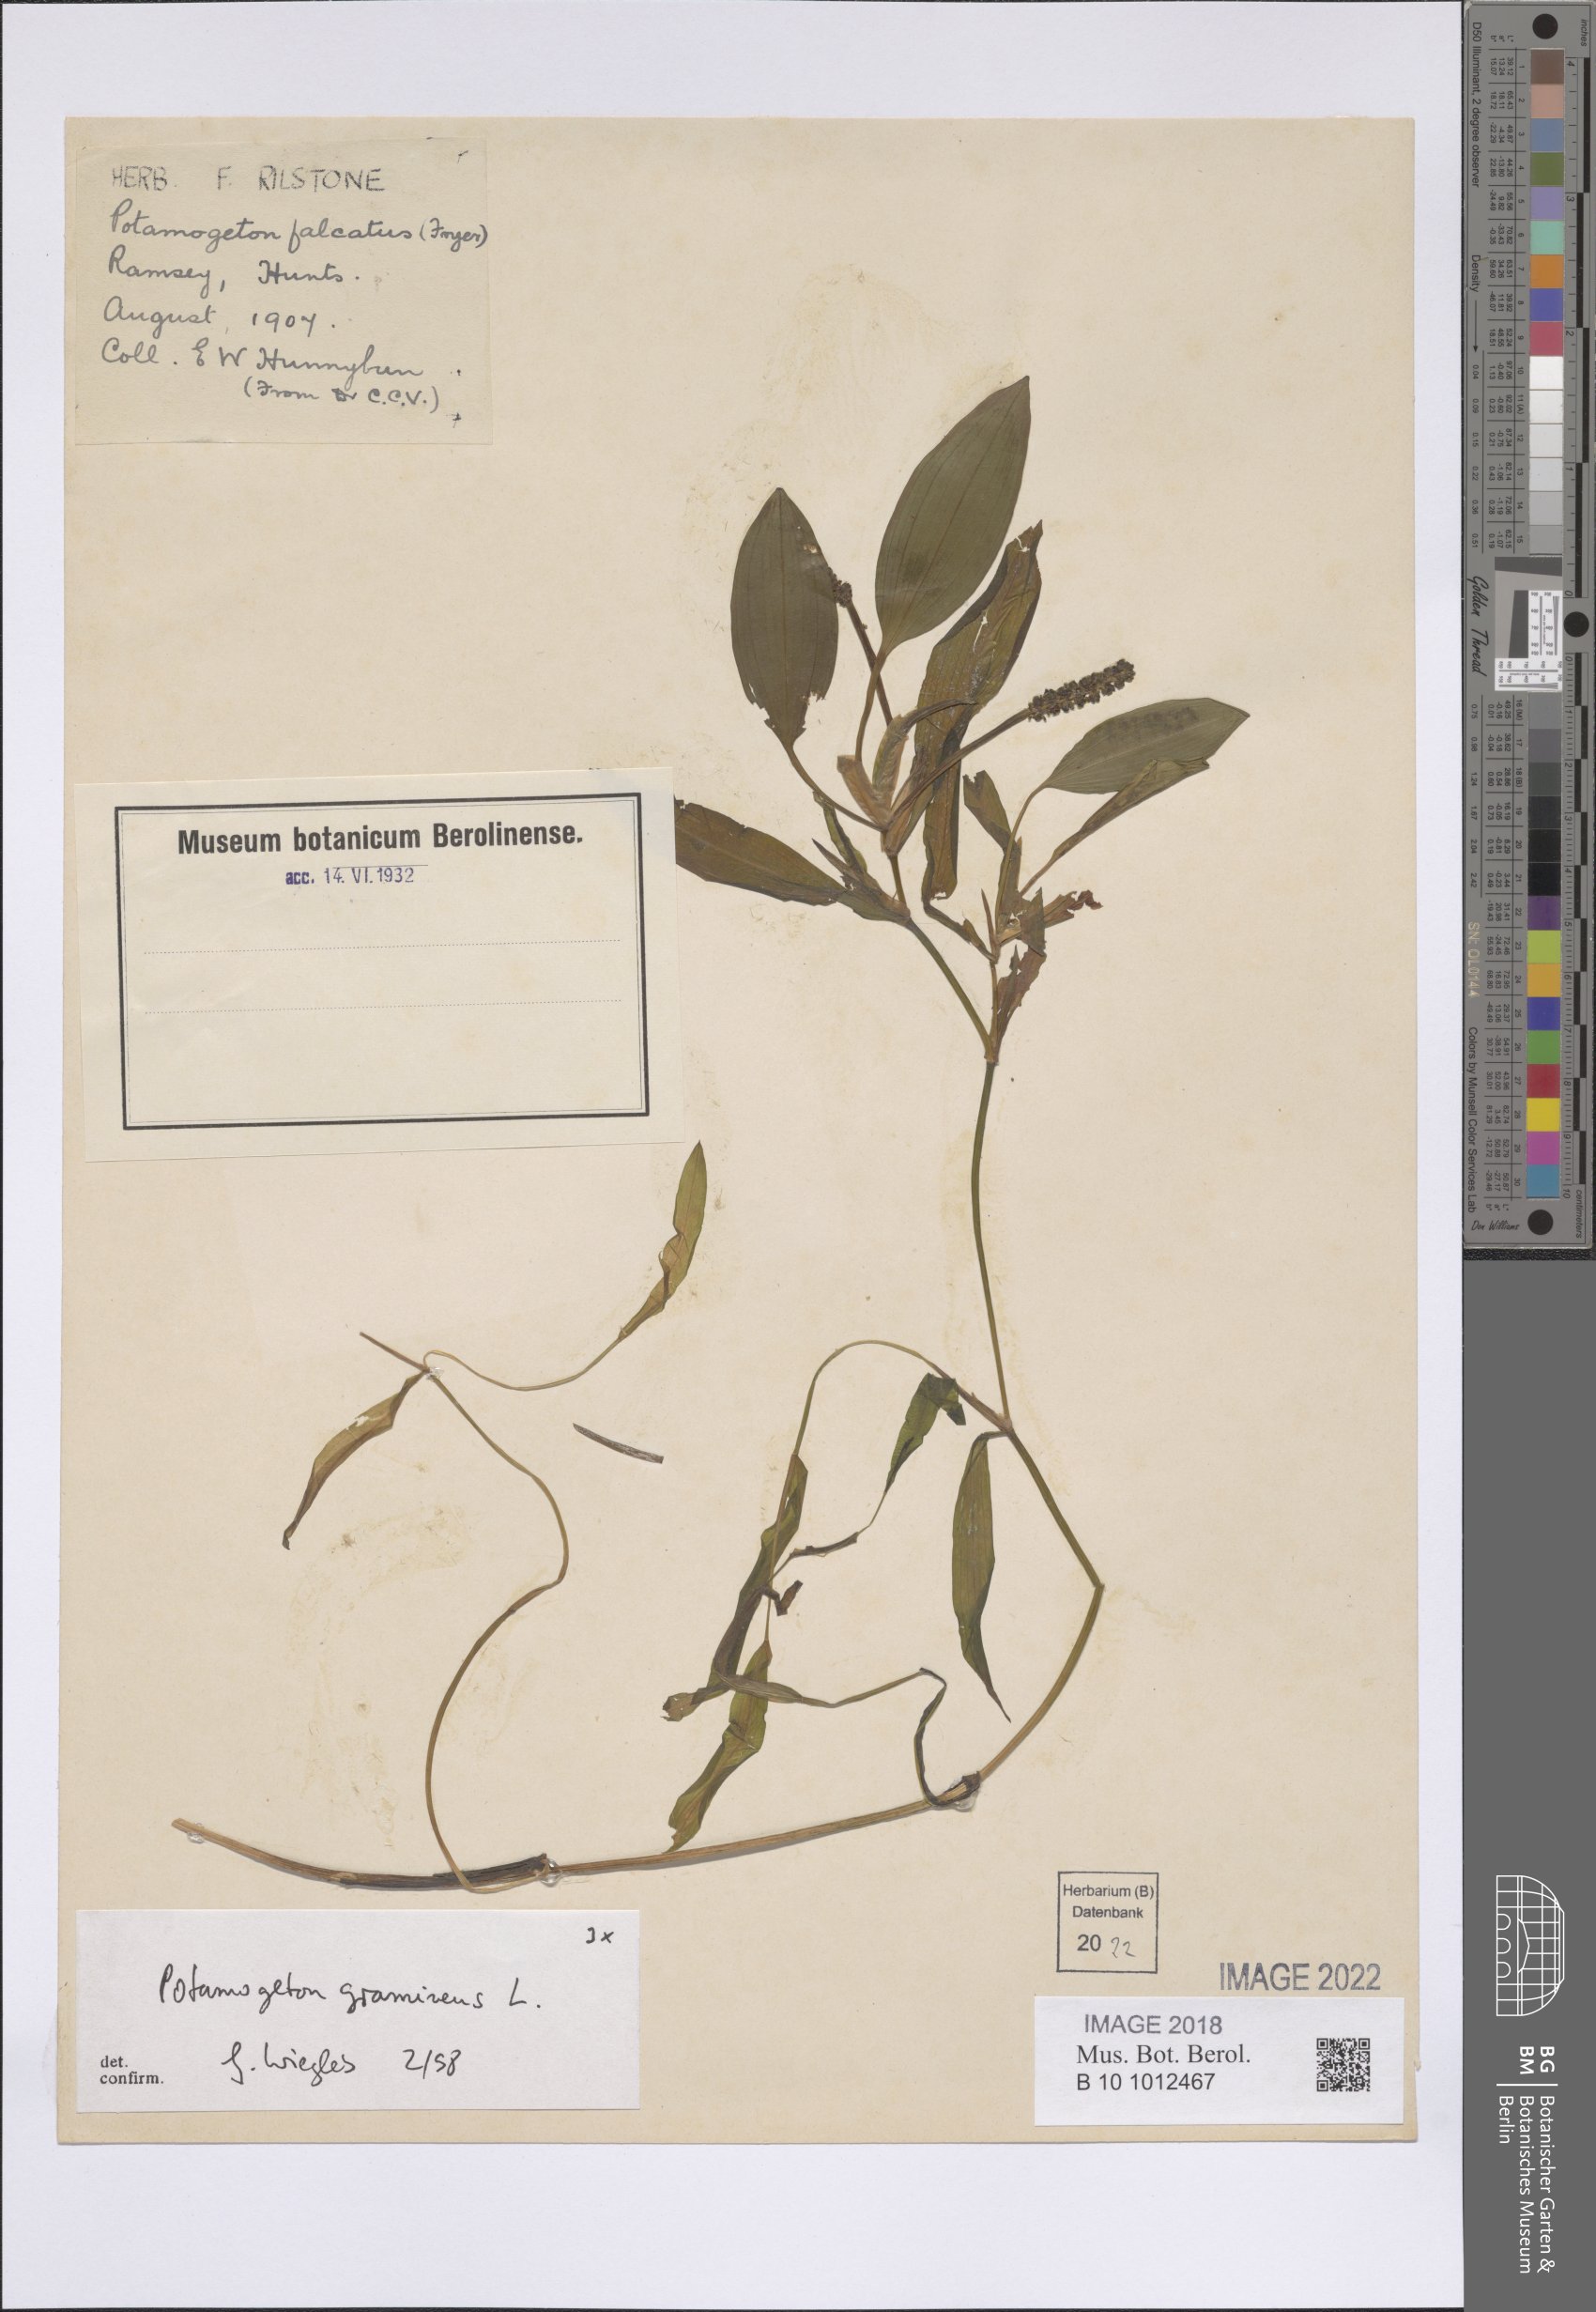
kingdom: Plantae
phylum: Tracheophyta
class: Liliopsida
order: Alismatales
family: Potamogetonaceae
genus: Potamogeton
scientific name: Potamogeton gramineus
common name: Various-leaved pondweed
